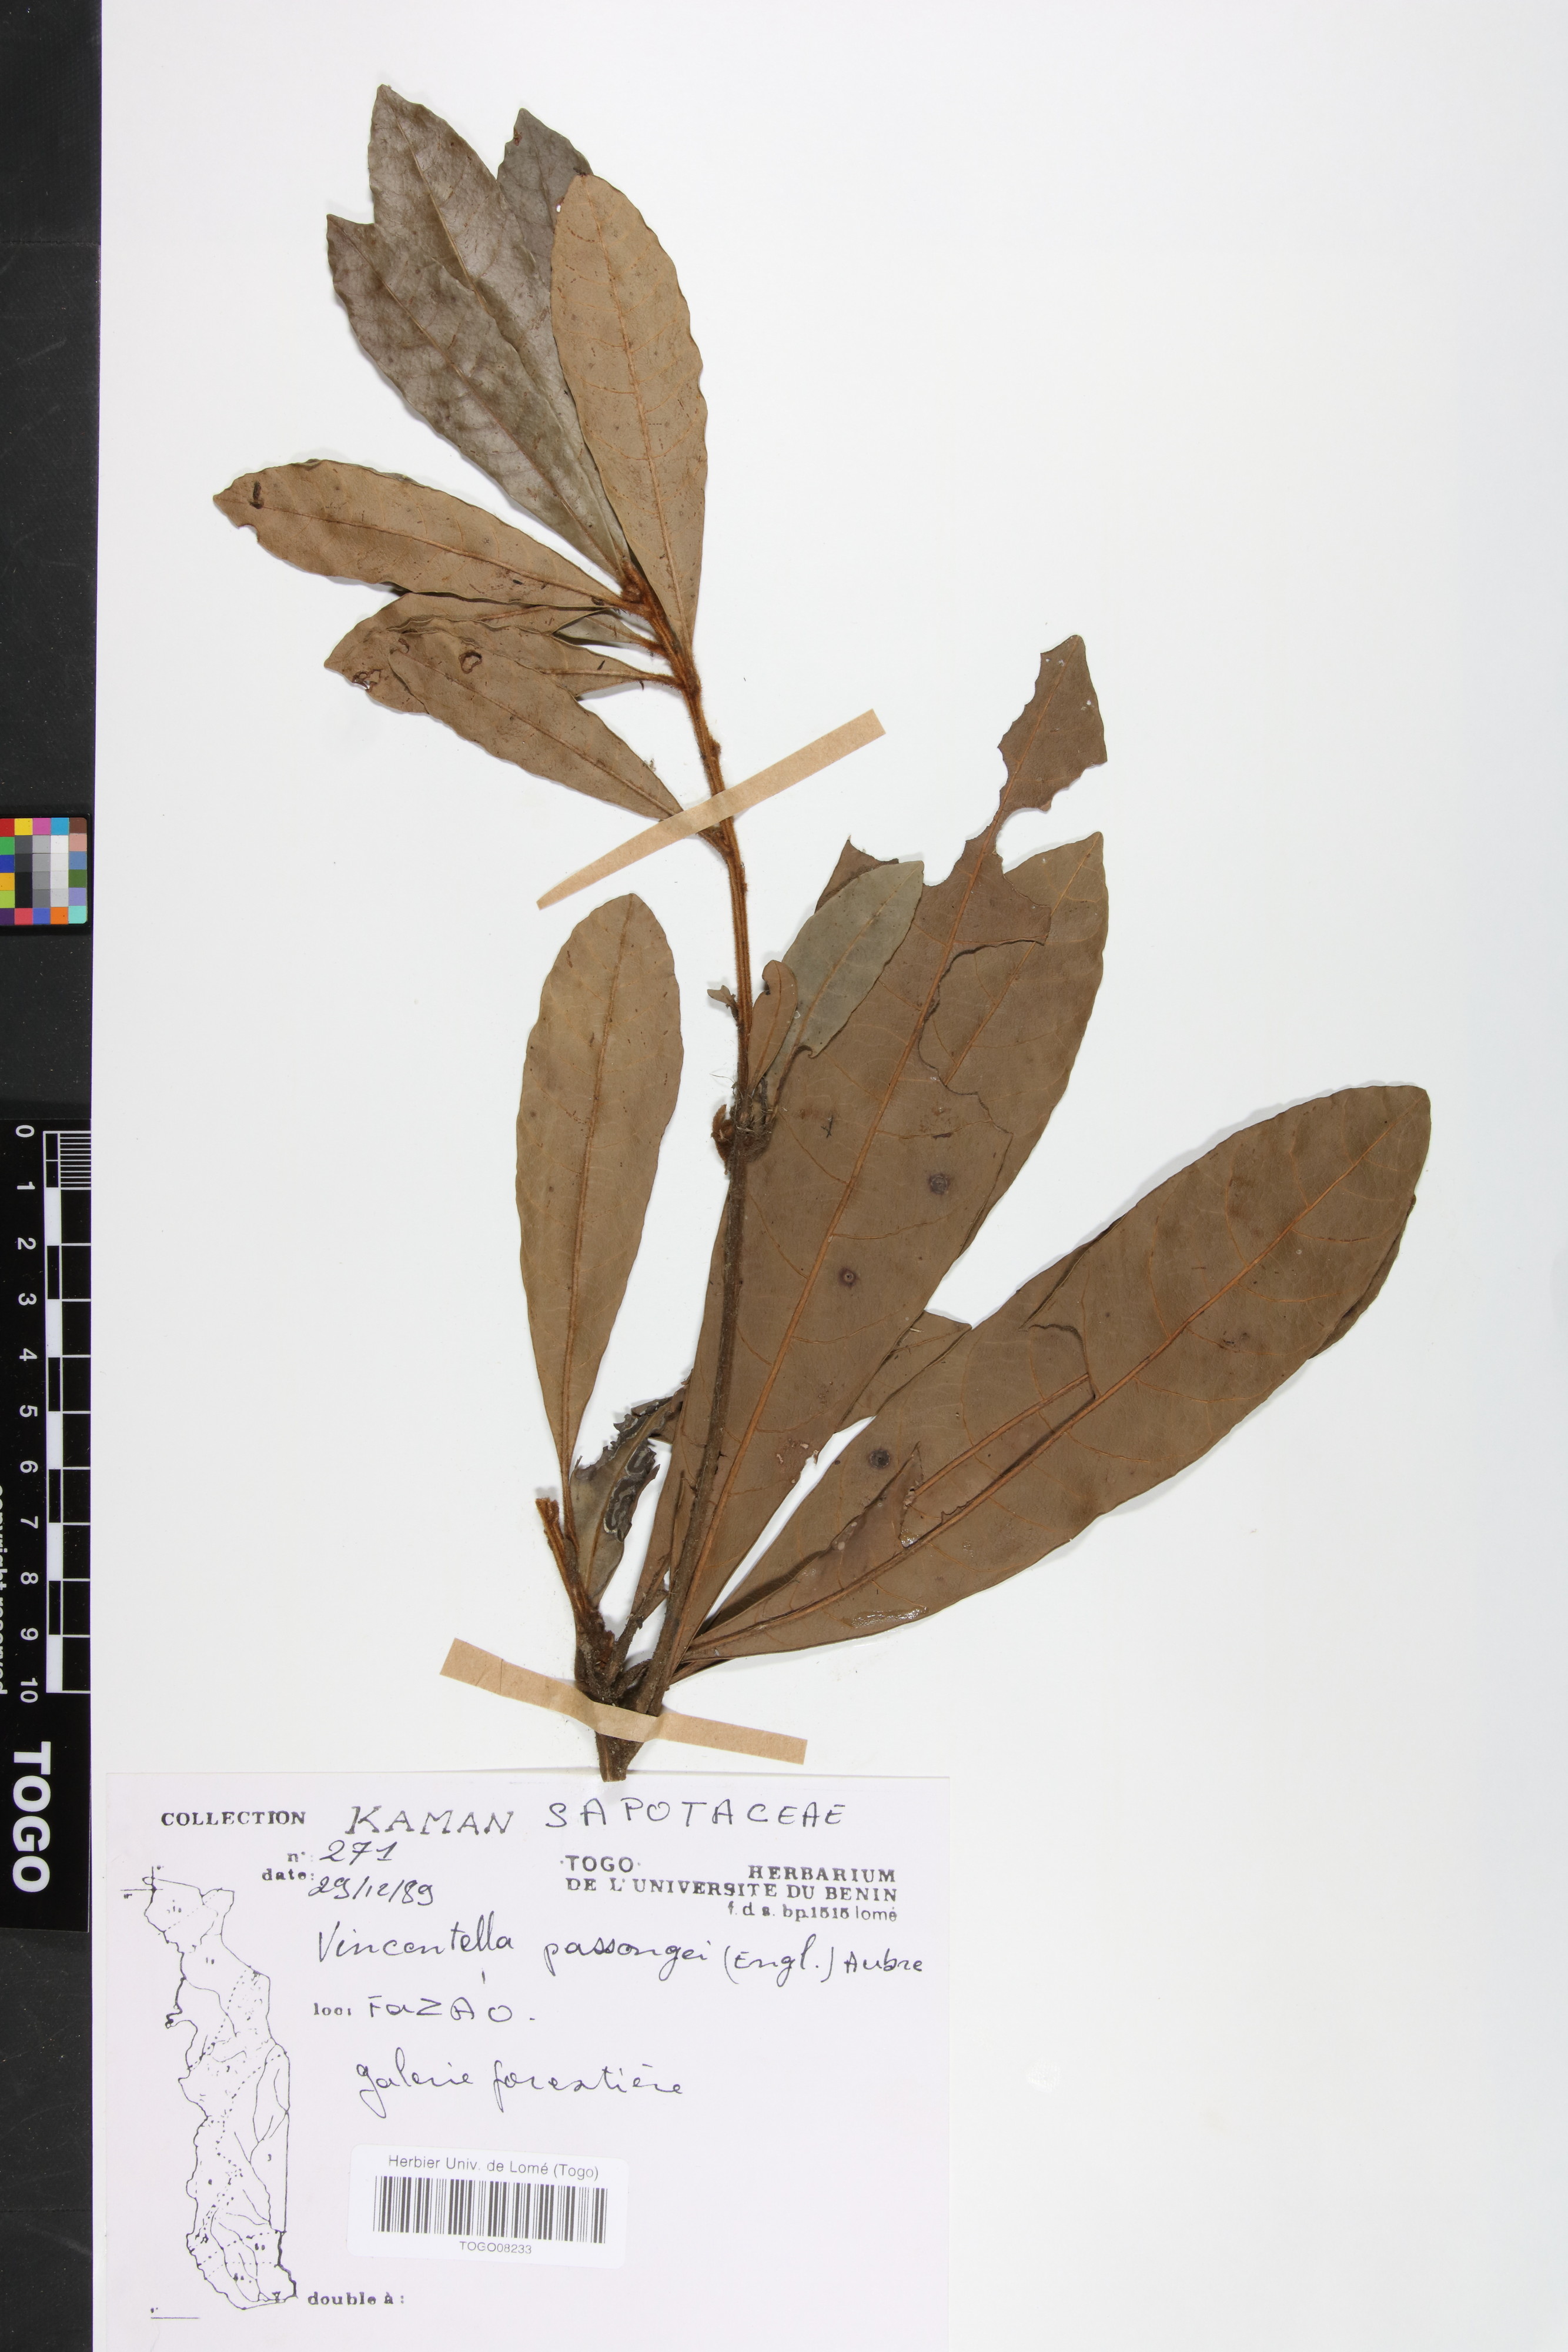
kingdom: Plantae
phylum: Tracheophyta
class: Magnoliopsida
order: Ericales
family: Sapotaceae
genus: Synsepalum
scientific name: Synsepalum passargei
